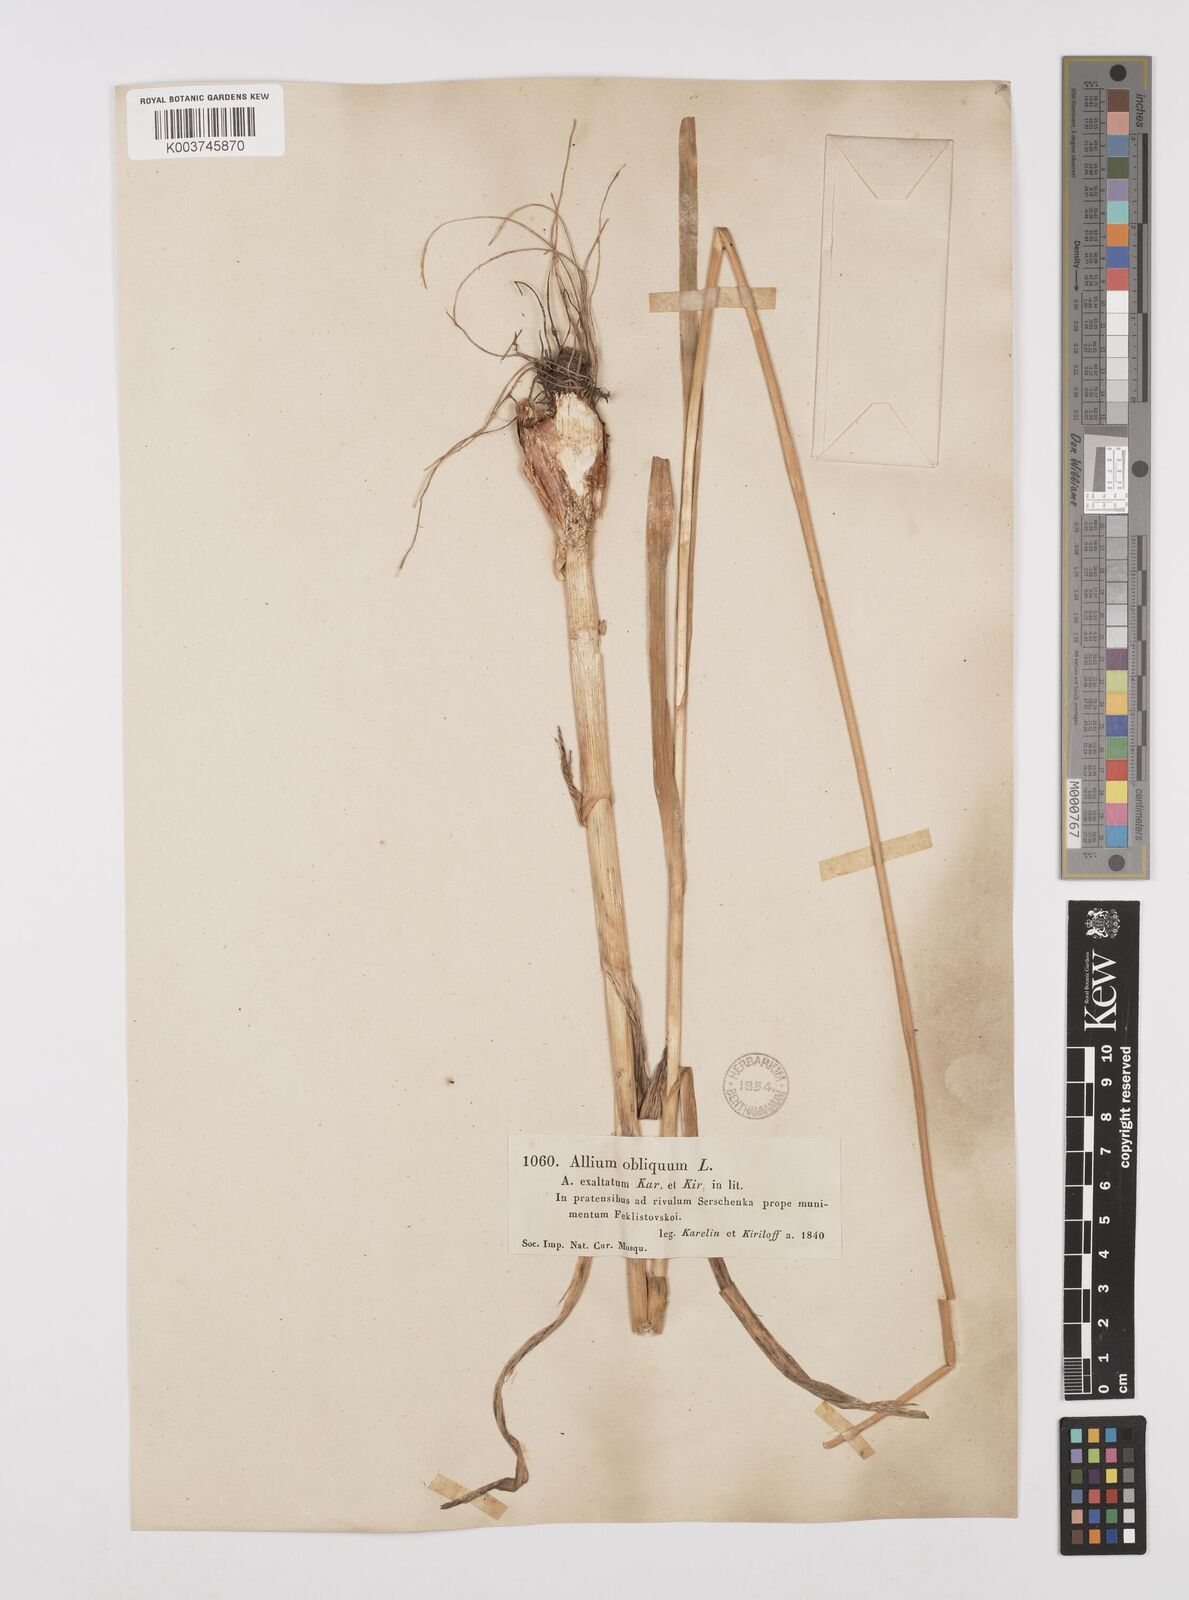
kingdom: Plantae
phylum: Tracheophyta
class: Liliopsida
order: Asparagales
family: Amaryllidaceae
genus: Allium
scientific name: Allium obliquum
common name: Oblique onion
